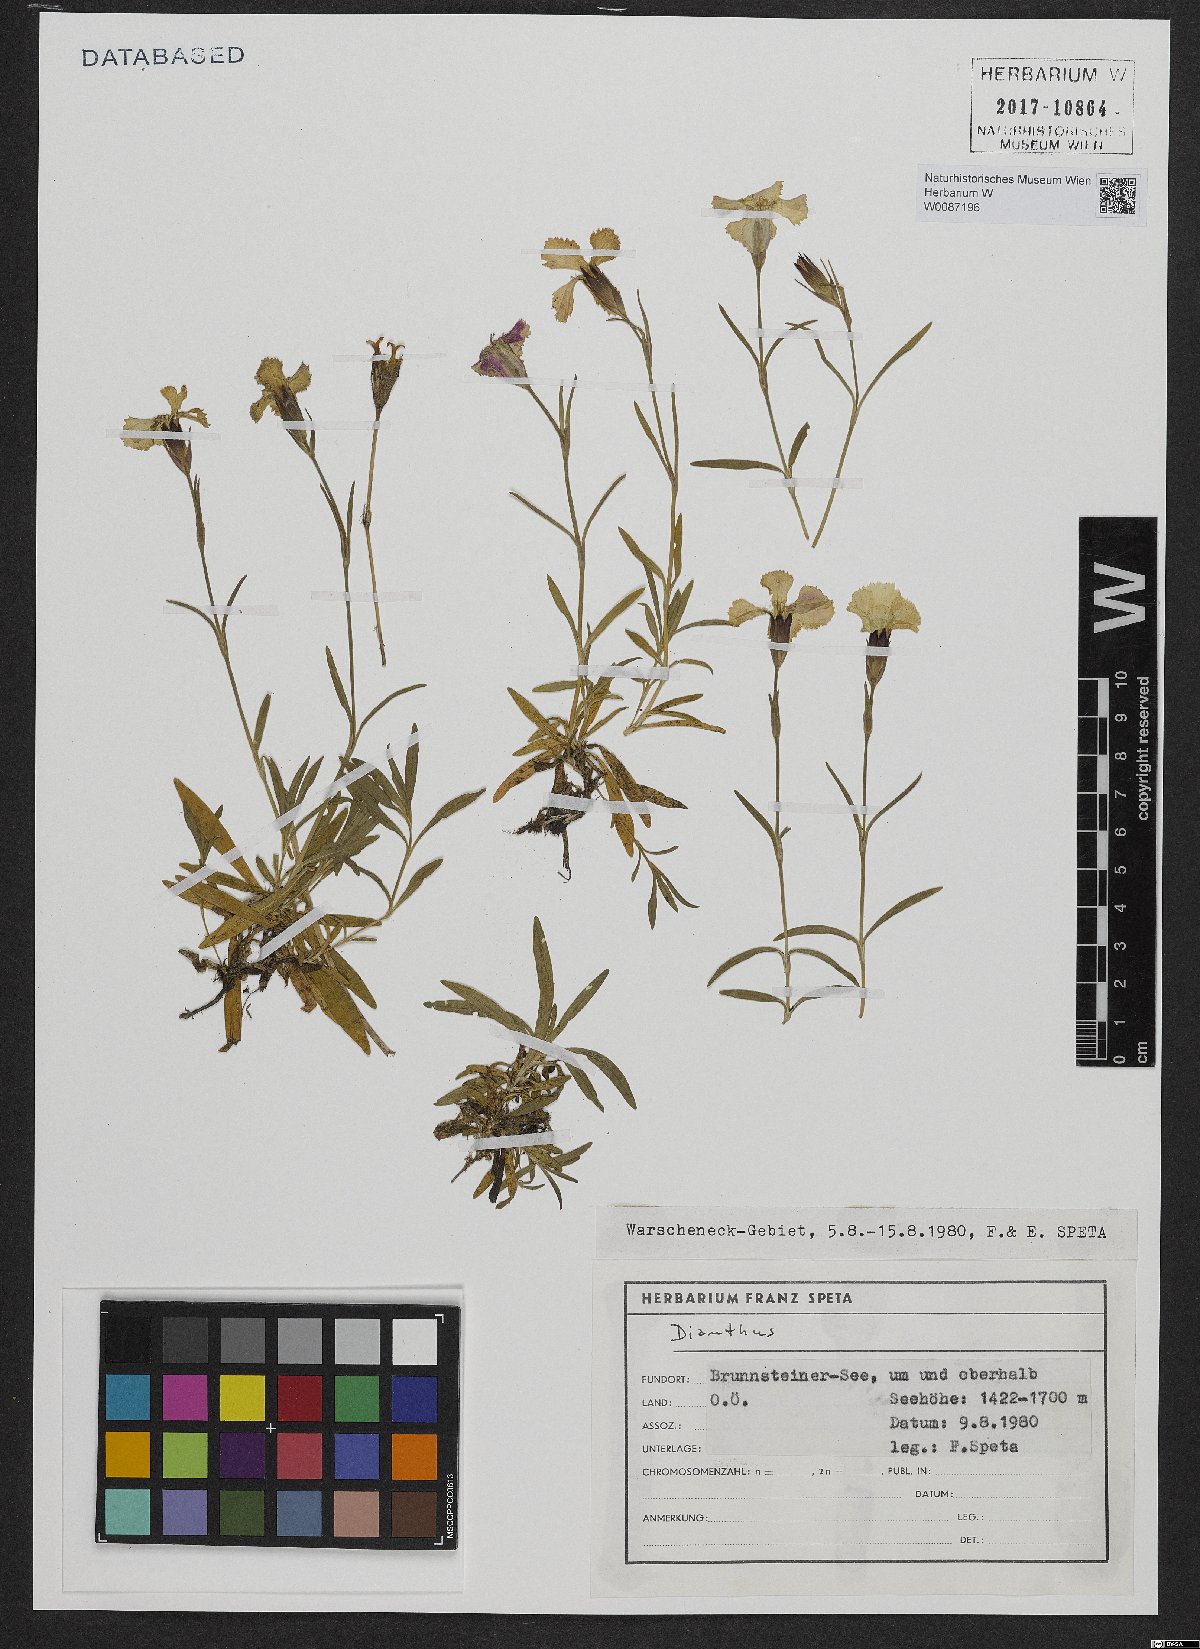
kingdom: Plantae
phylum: Tracheophyta
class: Magnoliopsida
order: Caryophyllales
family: Caryophyllaceae
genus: Dianthus
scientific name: Dianthus alpinus
